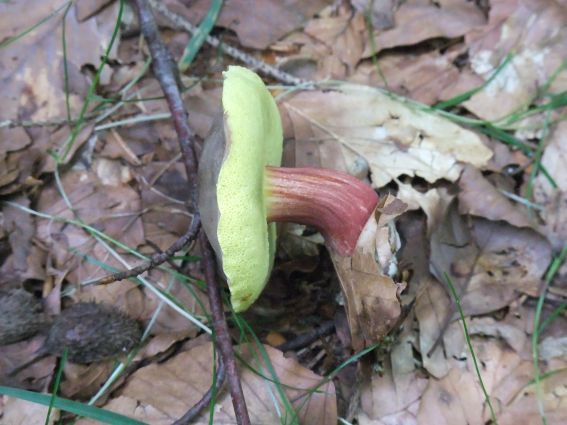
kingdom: Fungi
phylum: Basidiomycota
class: Agaricomycetes
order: Boletales
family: Boletaceae
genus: Xerocomellus
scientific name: Xerocomellus pruinatus
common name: dugget rørhat
